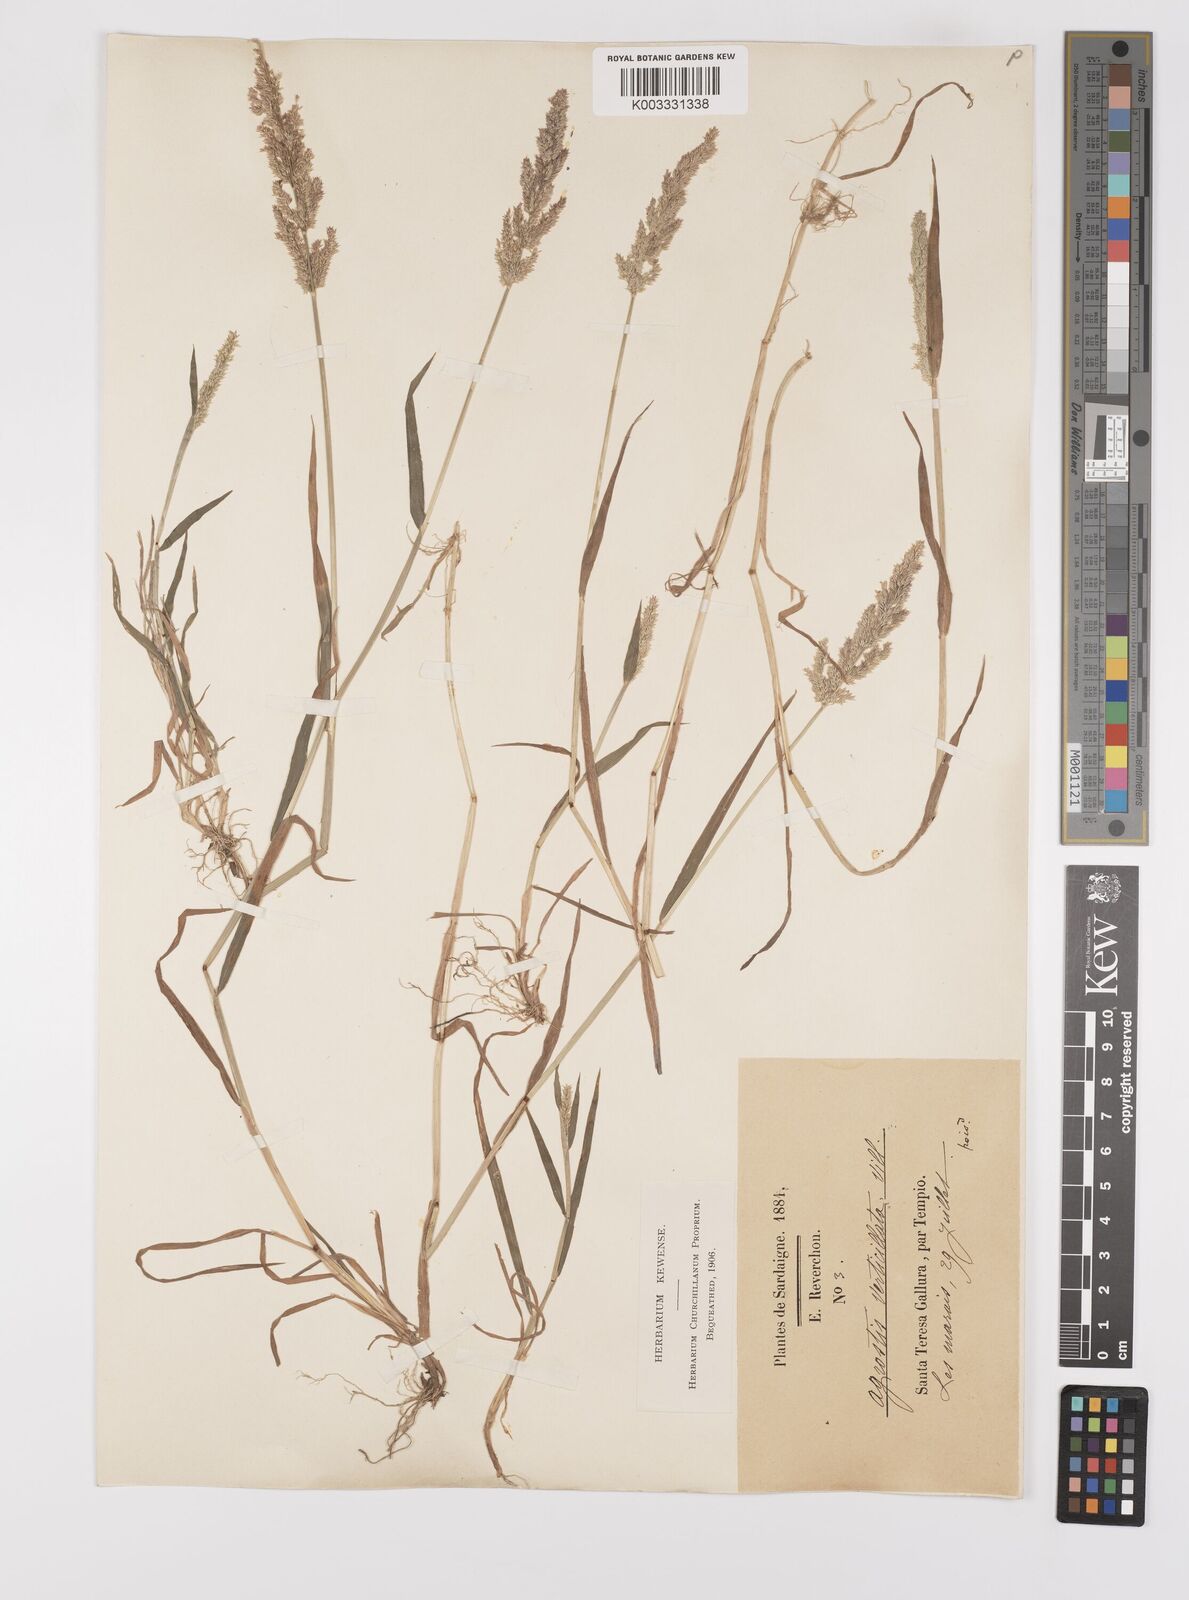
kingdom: Plantae
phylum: Tracheophyta
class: Liliopsida
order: Poales
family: Poaceae
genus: Polypogon
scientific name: Polypogon viridis
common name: Water bent
